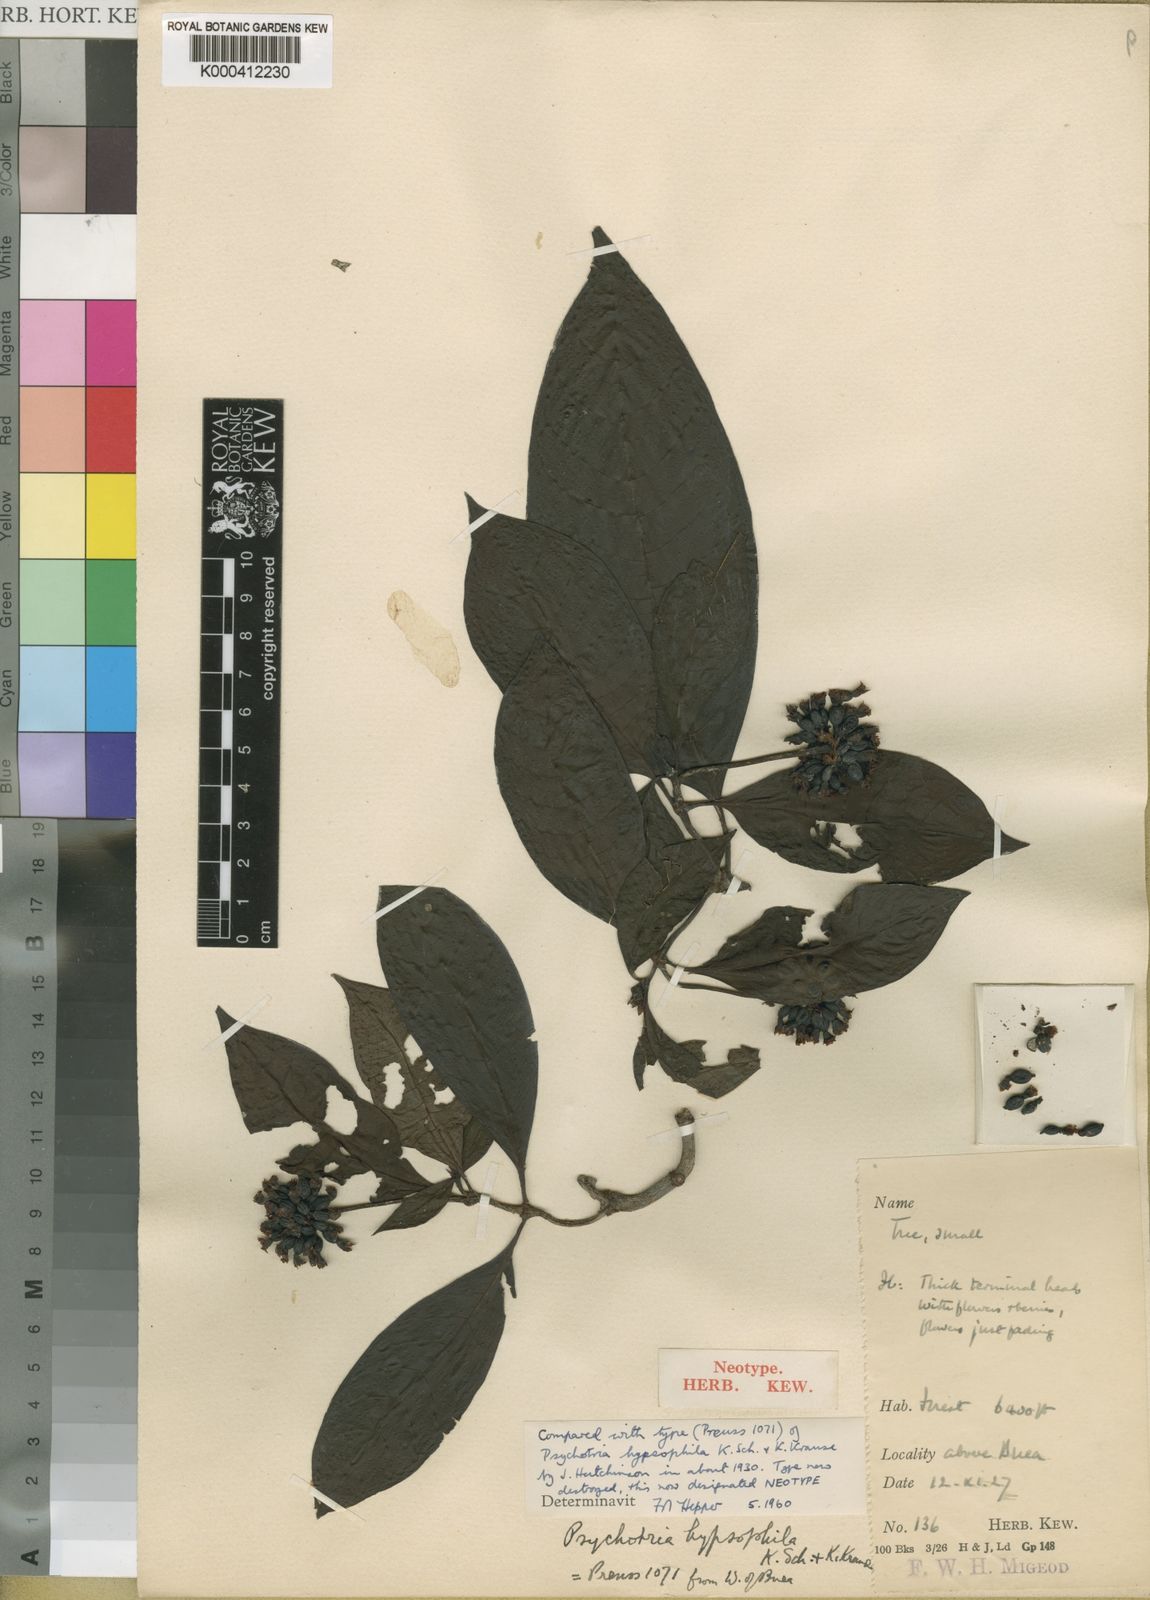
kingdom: Plantae
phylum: Tracheophyta
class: Magnoliopsida
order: Gentianales
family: Rubiaceae
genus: Psychotria
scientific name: Psychotria peduncularis
